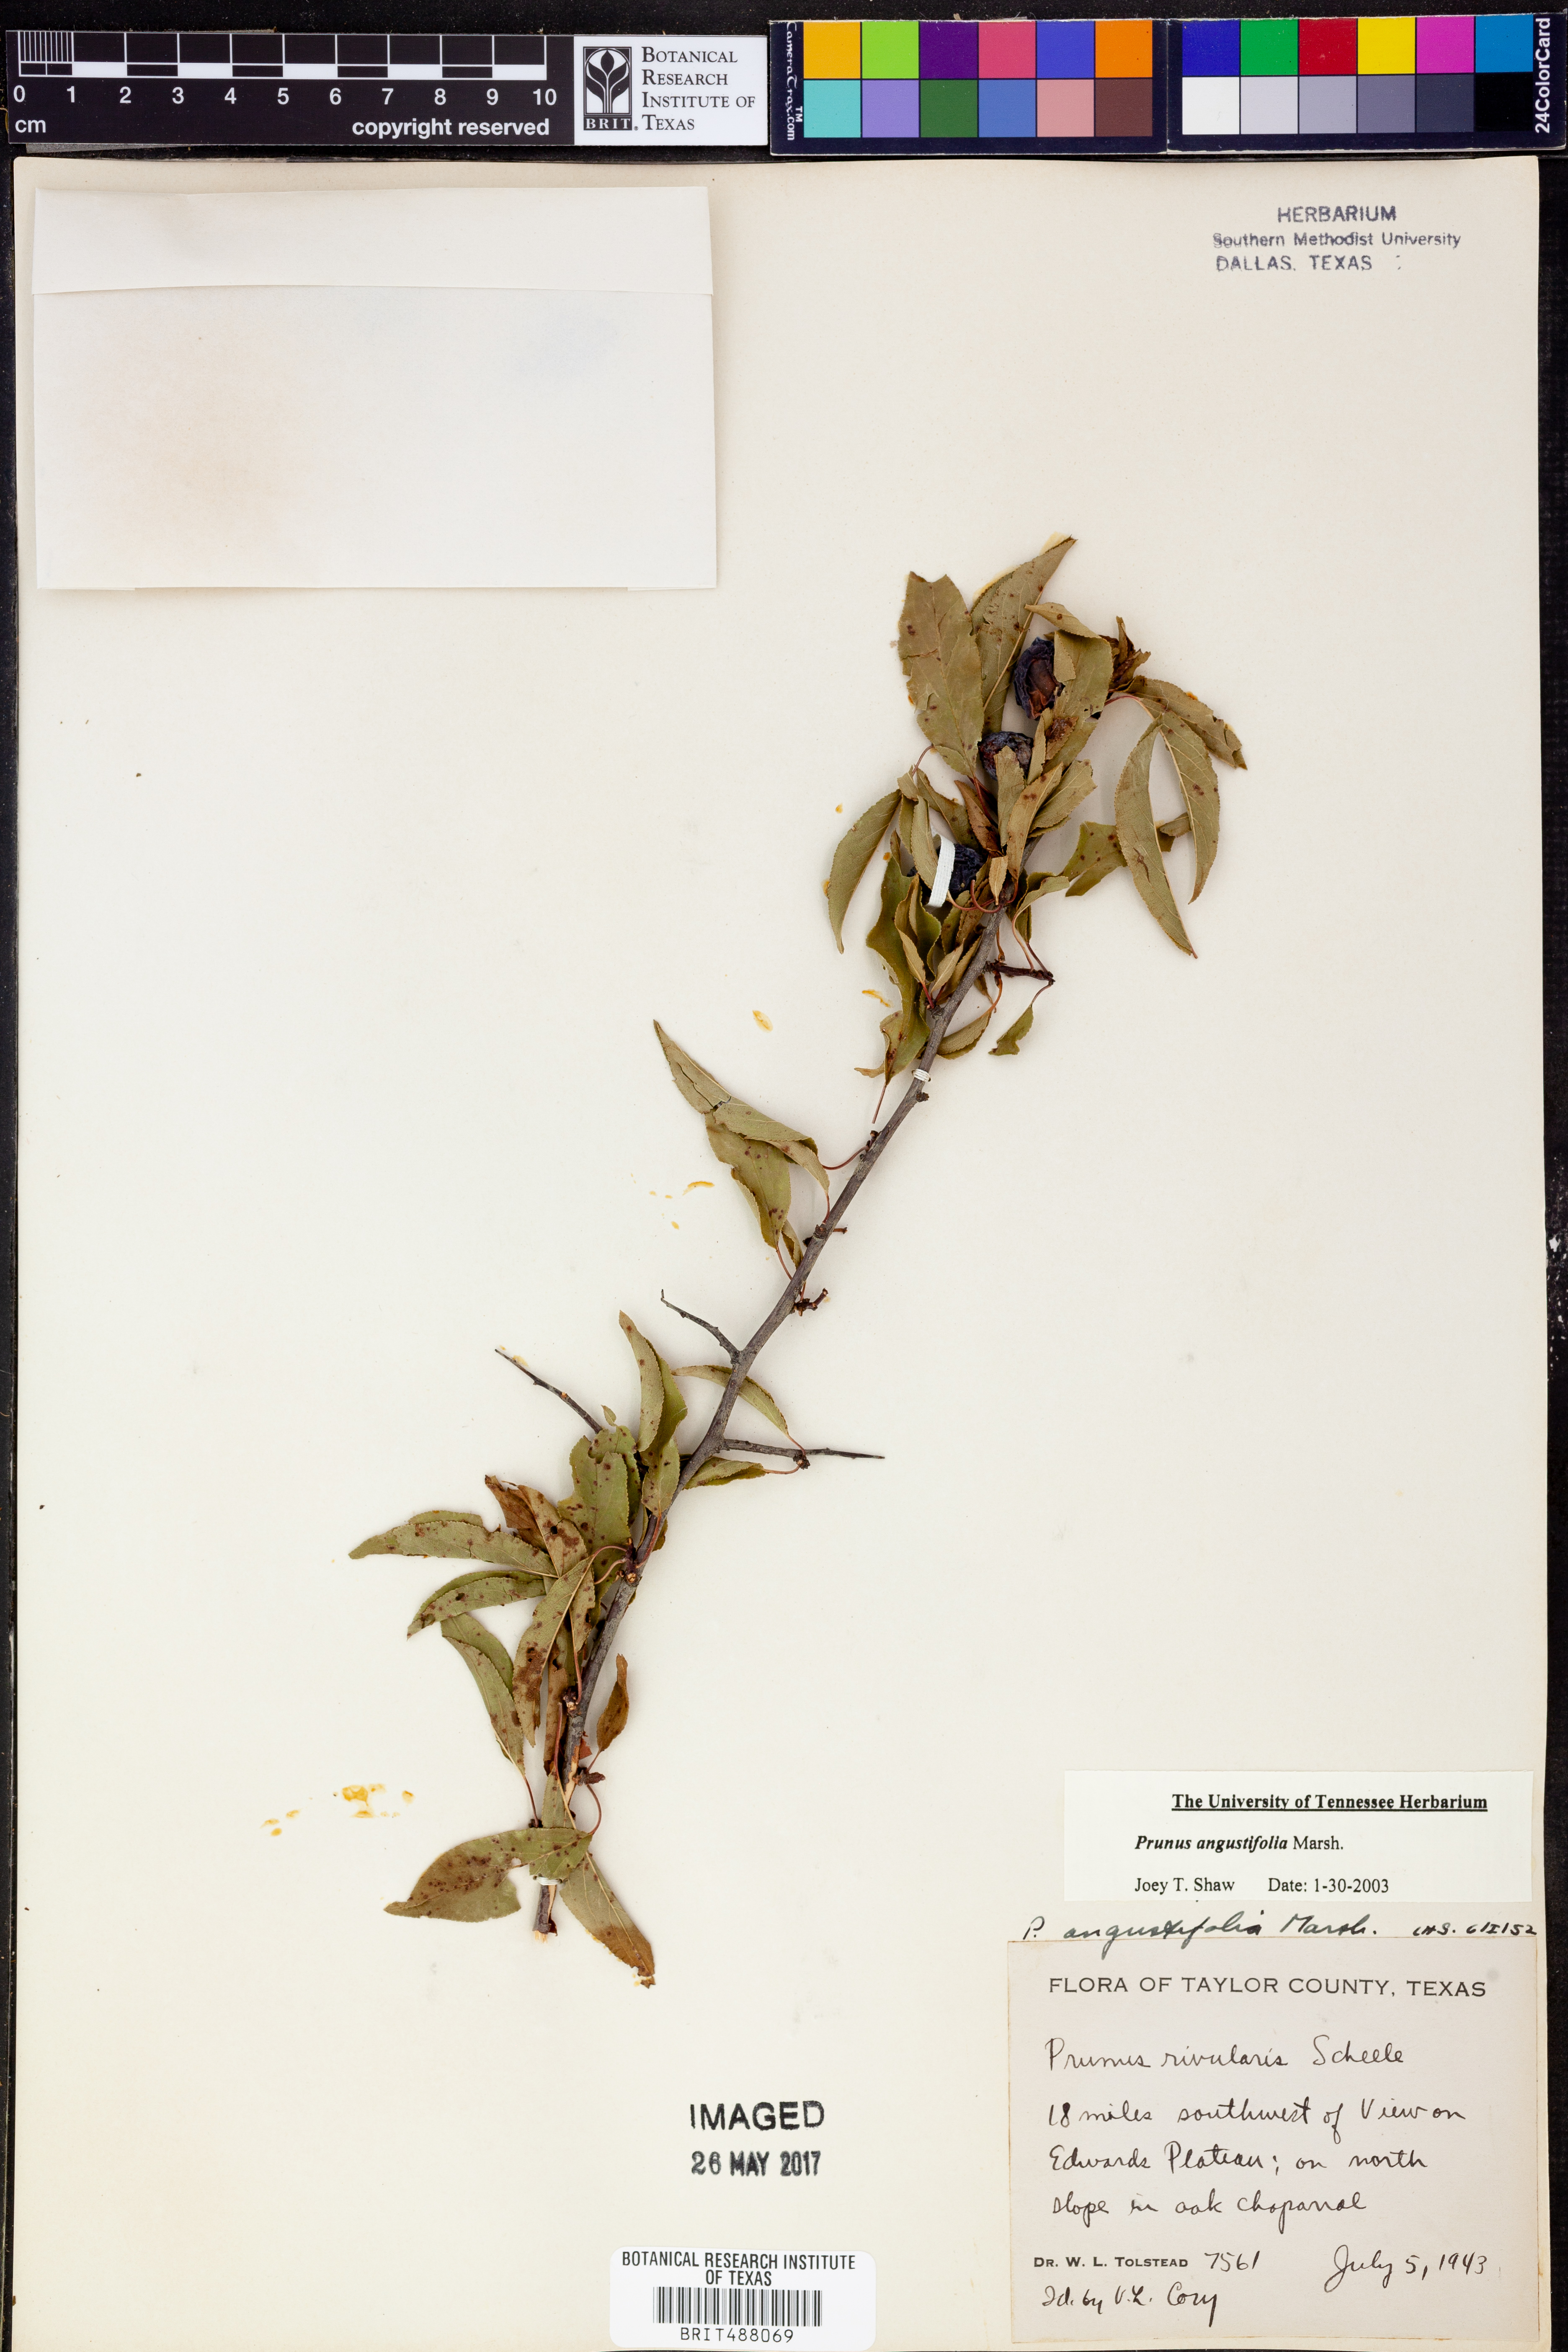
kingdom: Plantae
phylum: Tracheophyta
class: Magnoliopsida
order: Rosales
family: Rosaceae
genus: Prunus
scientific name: Prunus angustifolia
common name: Cherokee plum
